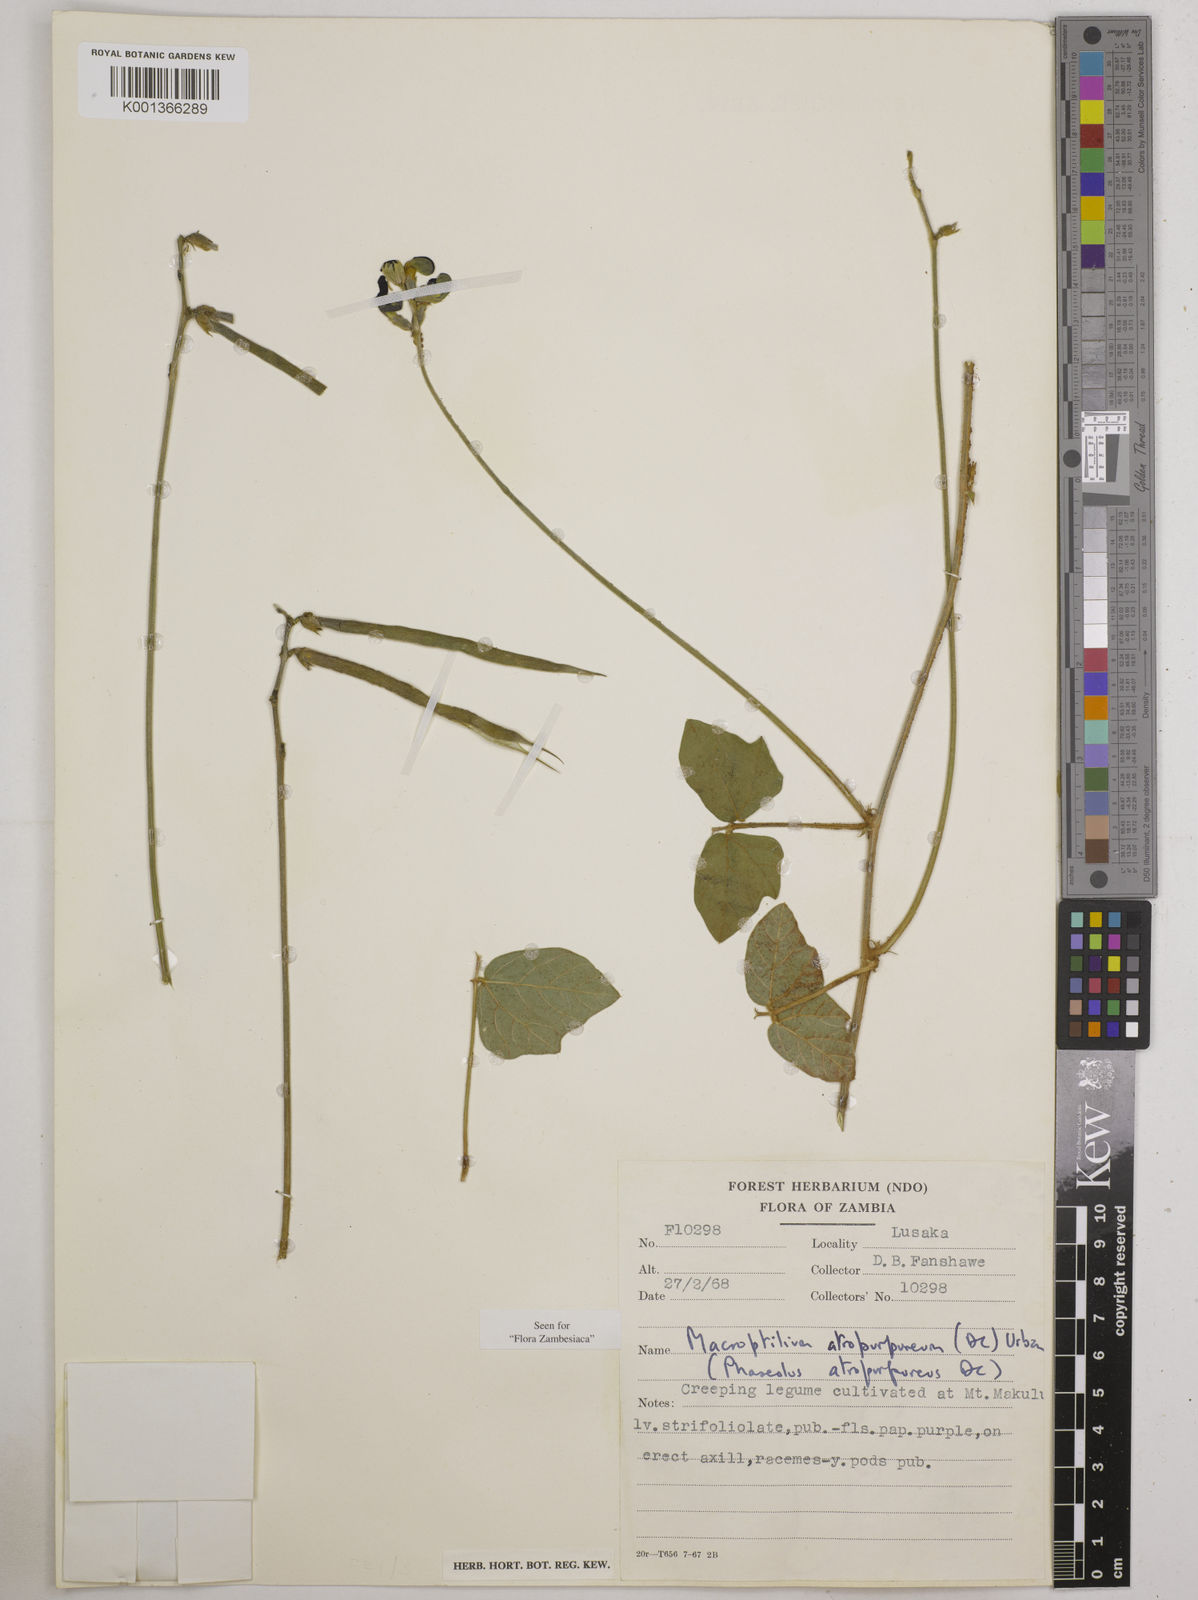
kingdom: Plantae
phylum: Tracheophyta
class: Magnoliopsida
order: Fabales
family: Fabaceae
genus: Macroptilium
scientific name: Macroptilium atropurpureum
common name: Purple bushbean
